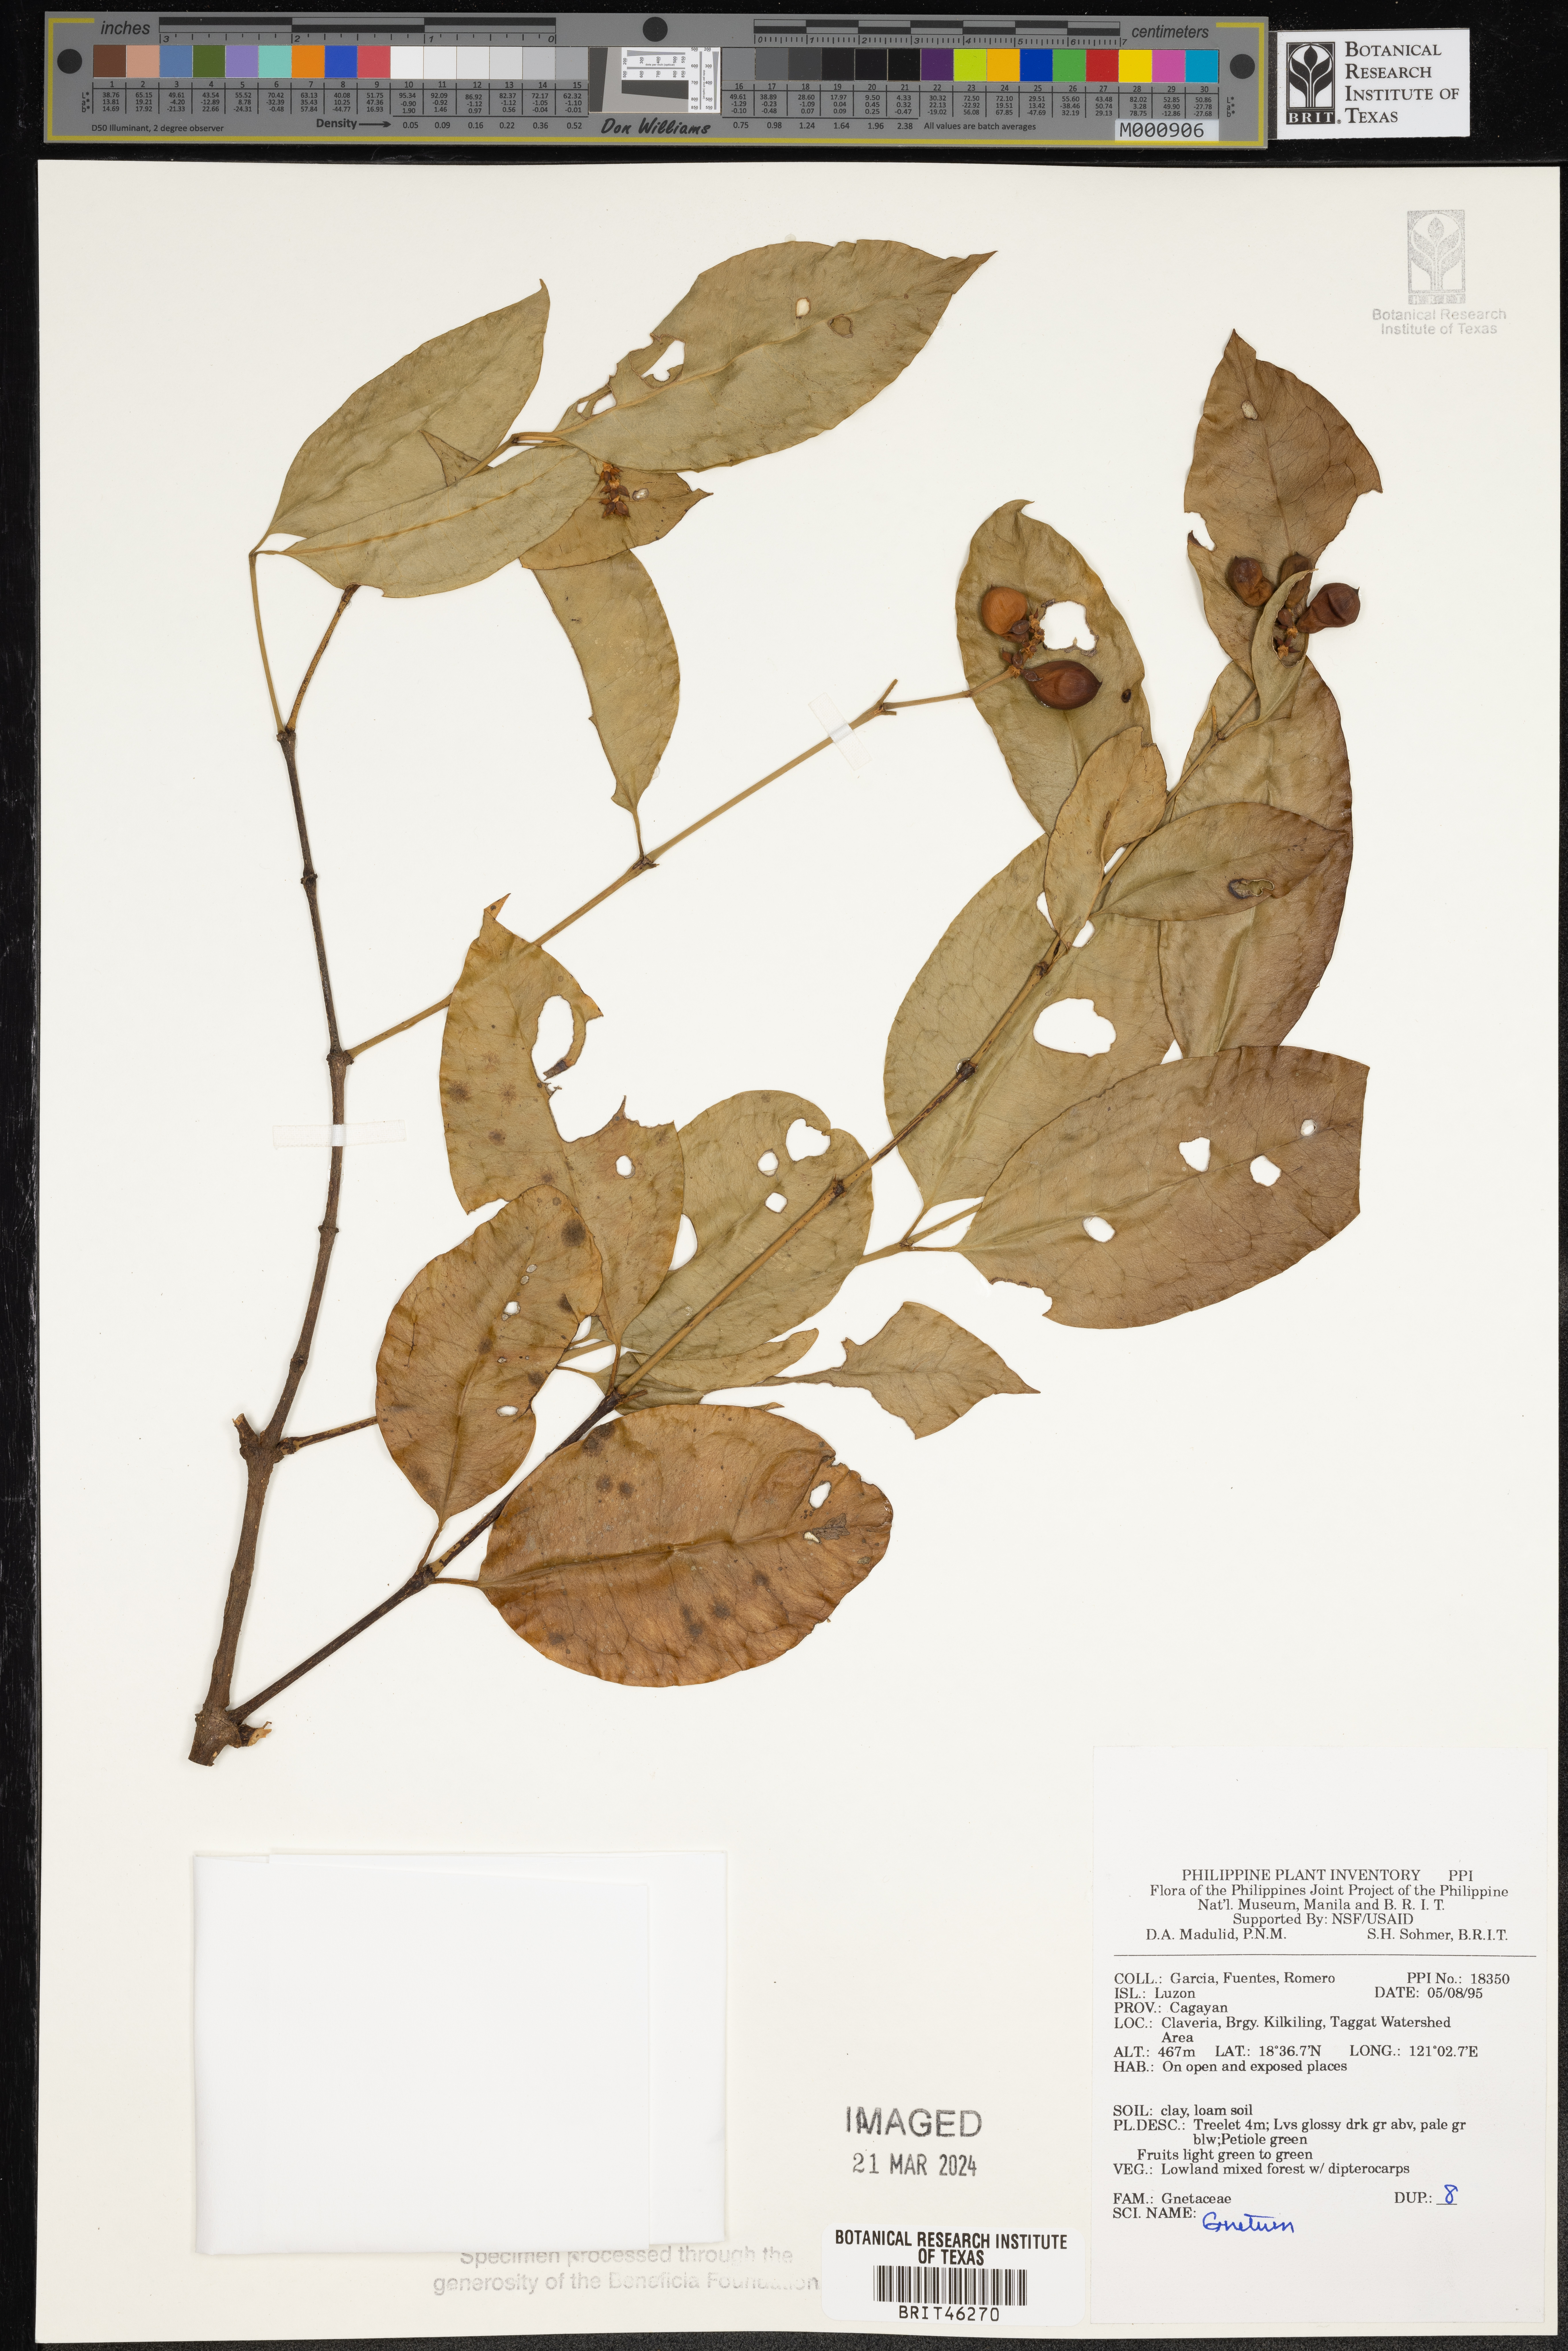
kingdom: Plantae
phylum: Tracheophyta
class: Gnetopsida
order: Gnetales
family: Gnetaceae
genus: Gnetum
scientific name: Gnetum
